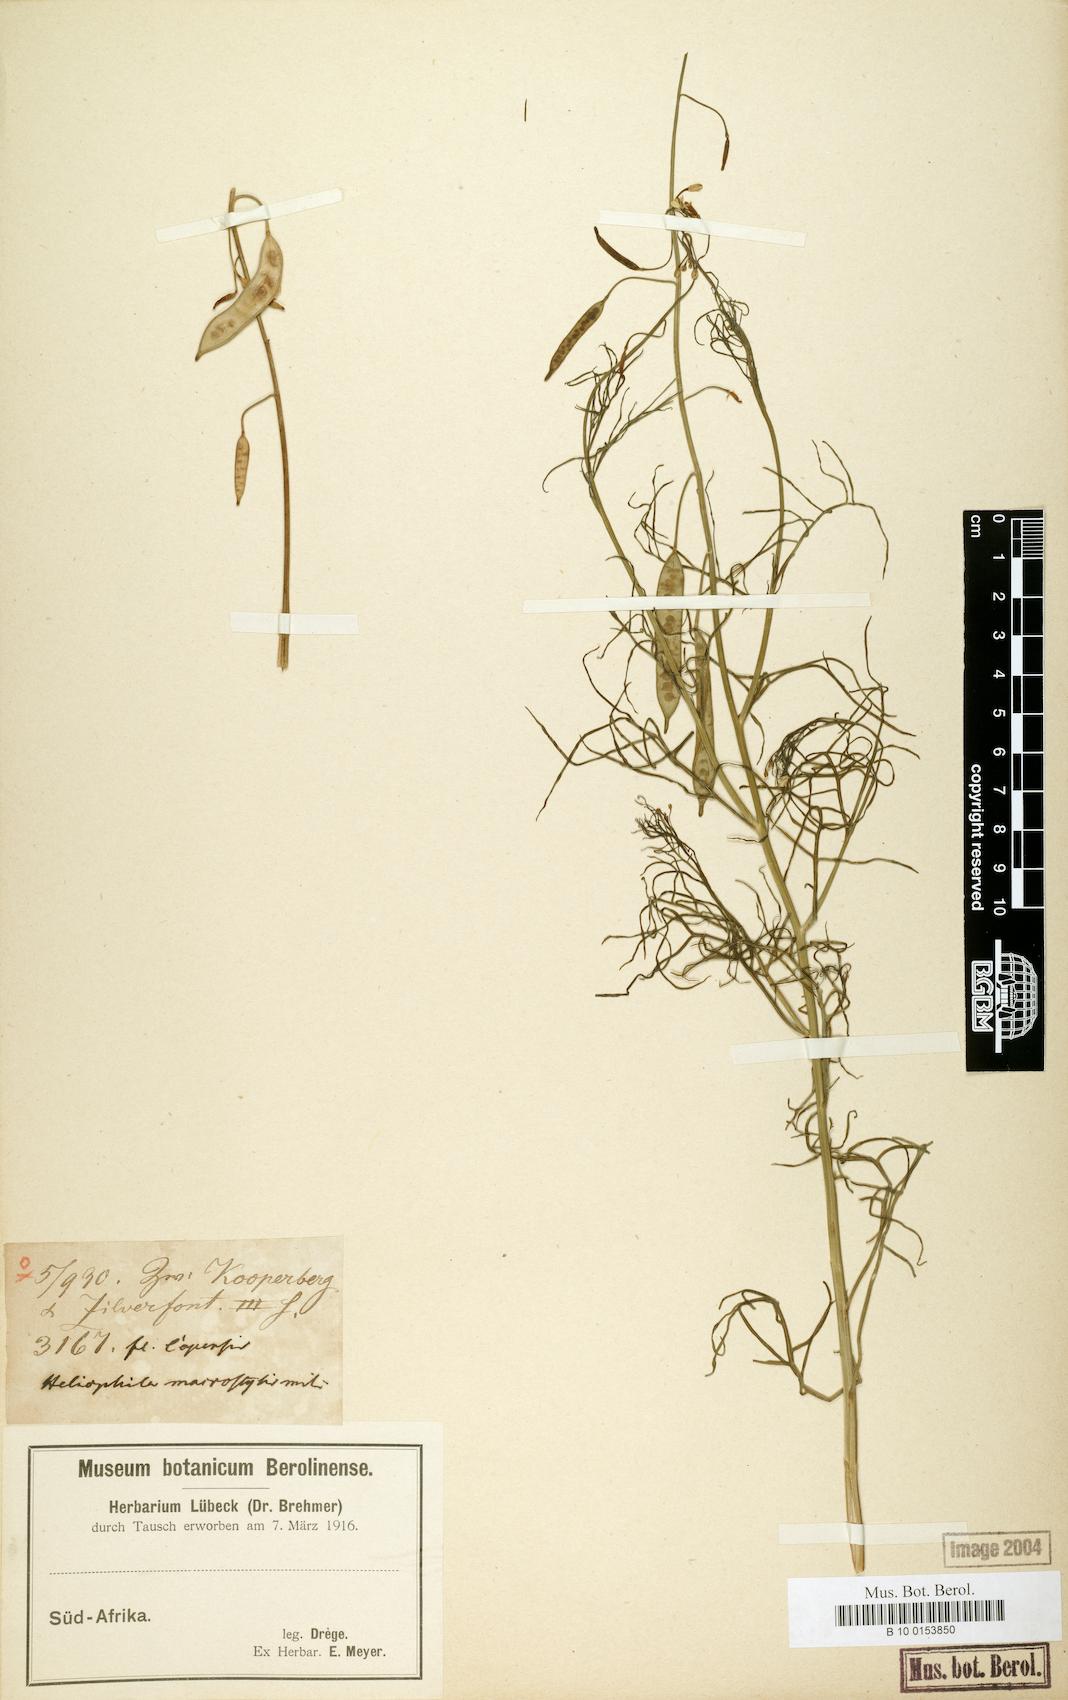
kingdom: Plantae
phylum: Tracheophyta
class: Magnoliopsida
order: Brassicales
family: Brassicaceae
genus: Heliophila
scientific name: Heliophila thunbergii
